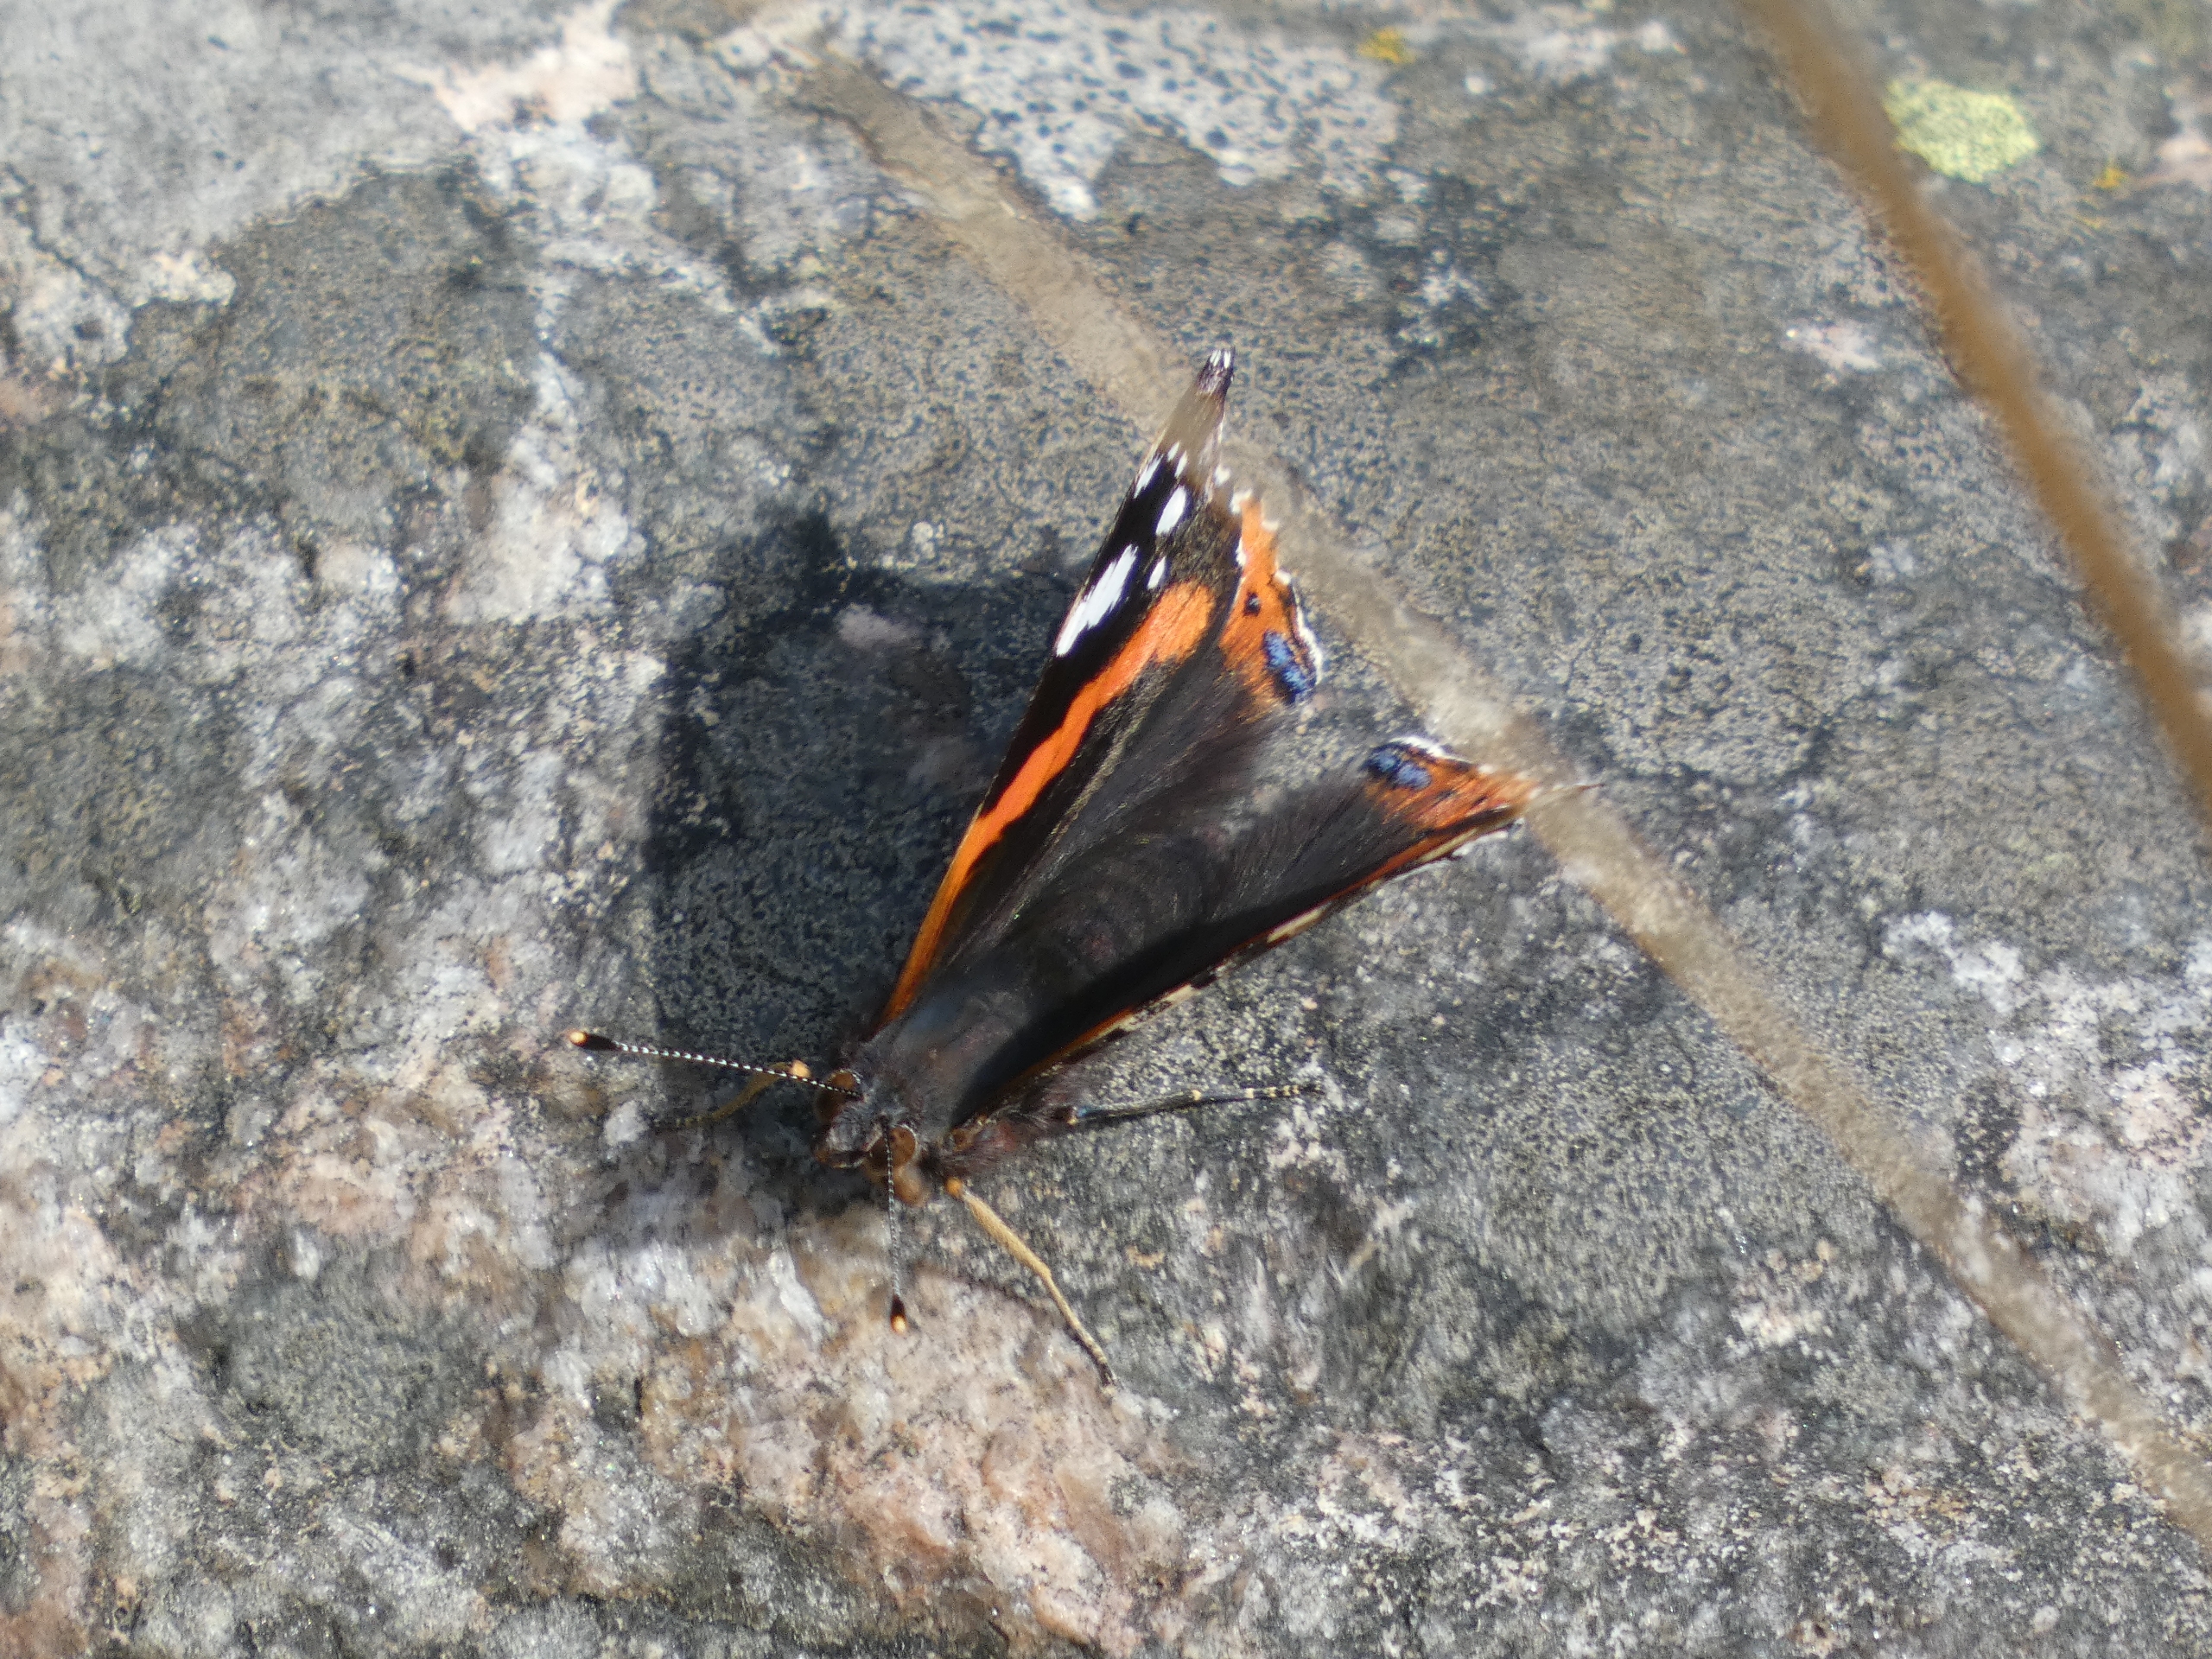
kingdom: Animalia
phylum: Arthropoda
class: Insecta
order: Lepidoptera
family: Nymphalidae
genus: Vanessa
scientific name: Vanessa atalanta
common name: Admiral
